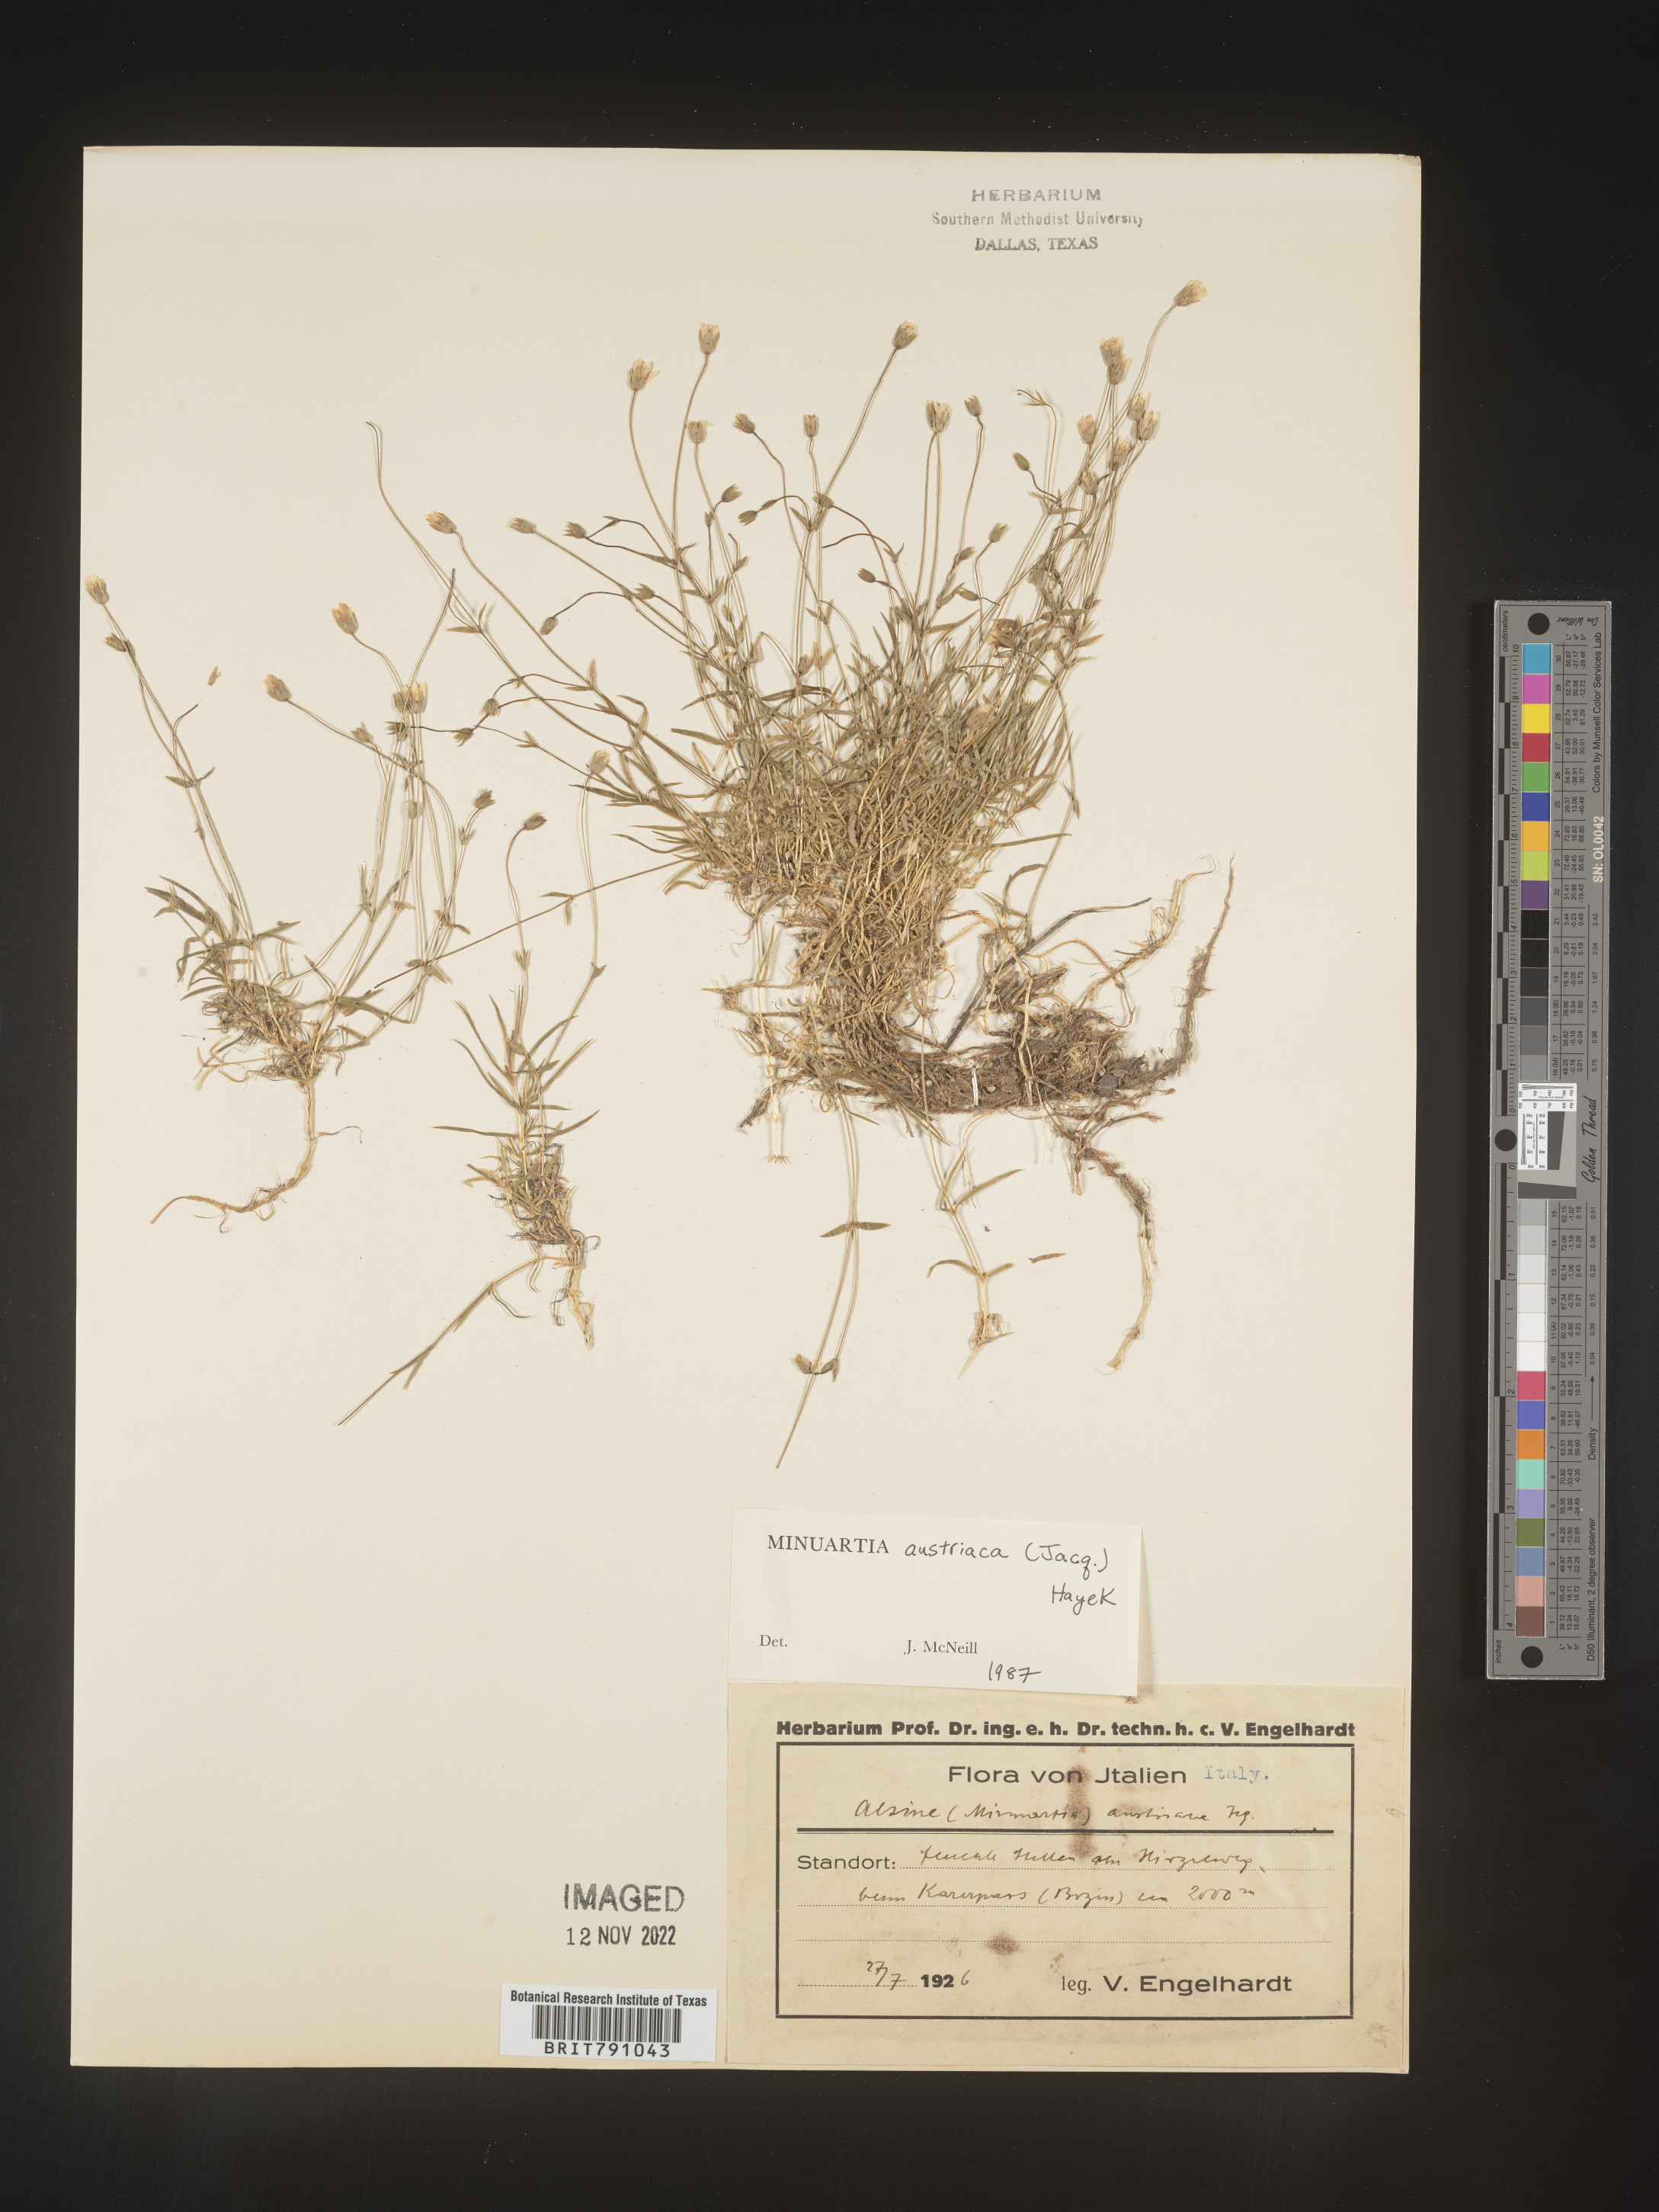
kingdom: Plantae
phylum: Tracheophyta
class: Magnoliopsida
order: Caryophyllales
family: Caryophyllaceae
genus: Minuartia
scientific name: Minuartia
